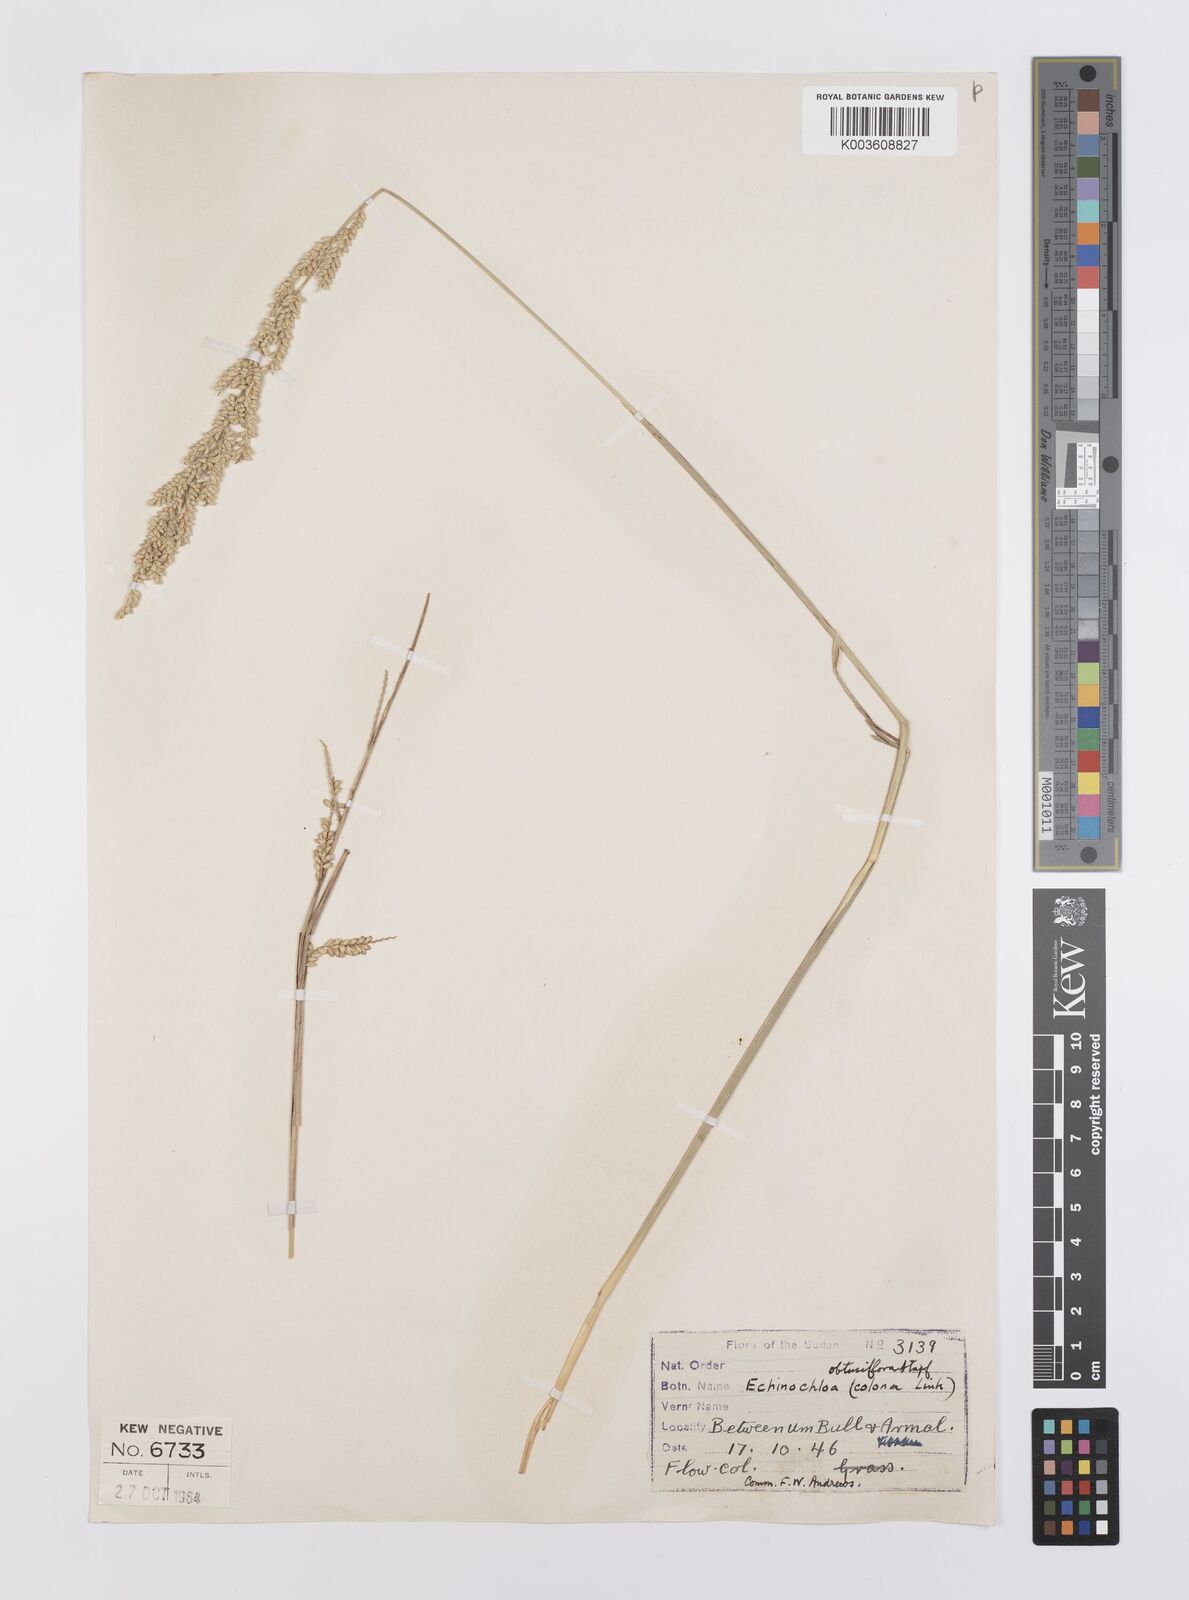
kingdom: Plantae
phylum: Tracheophyta
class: Liliopsida
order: Poales
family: Poaceae
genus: Echinochloa
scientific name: Echinochloa obtusiflora
